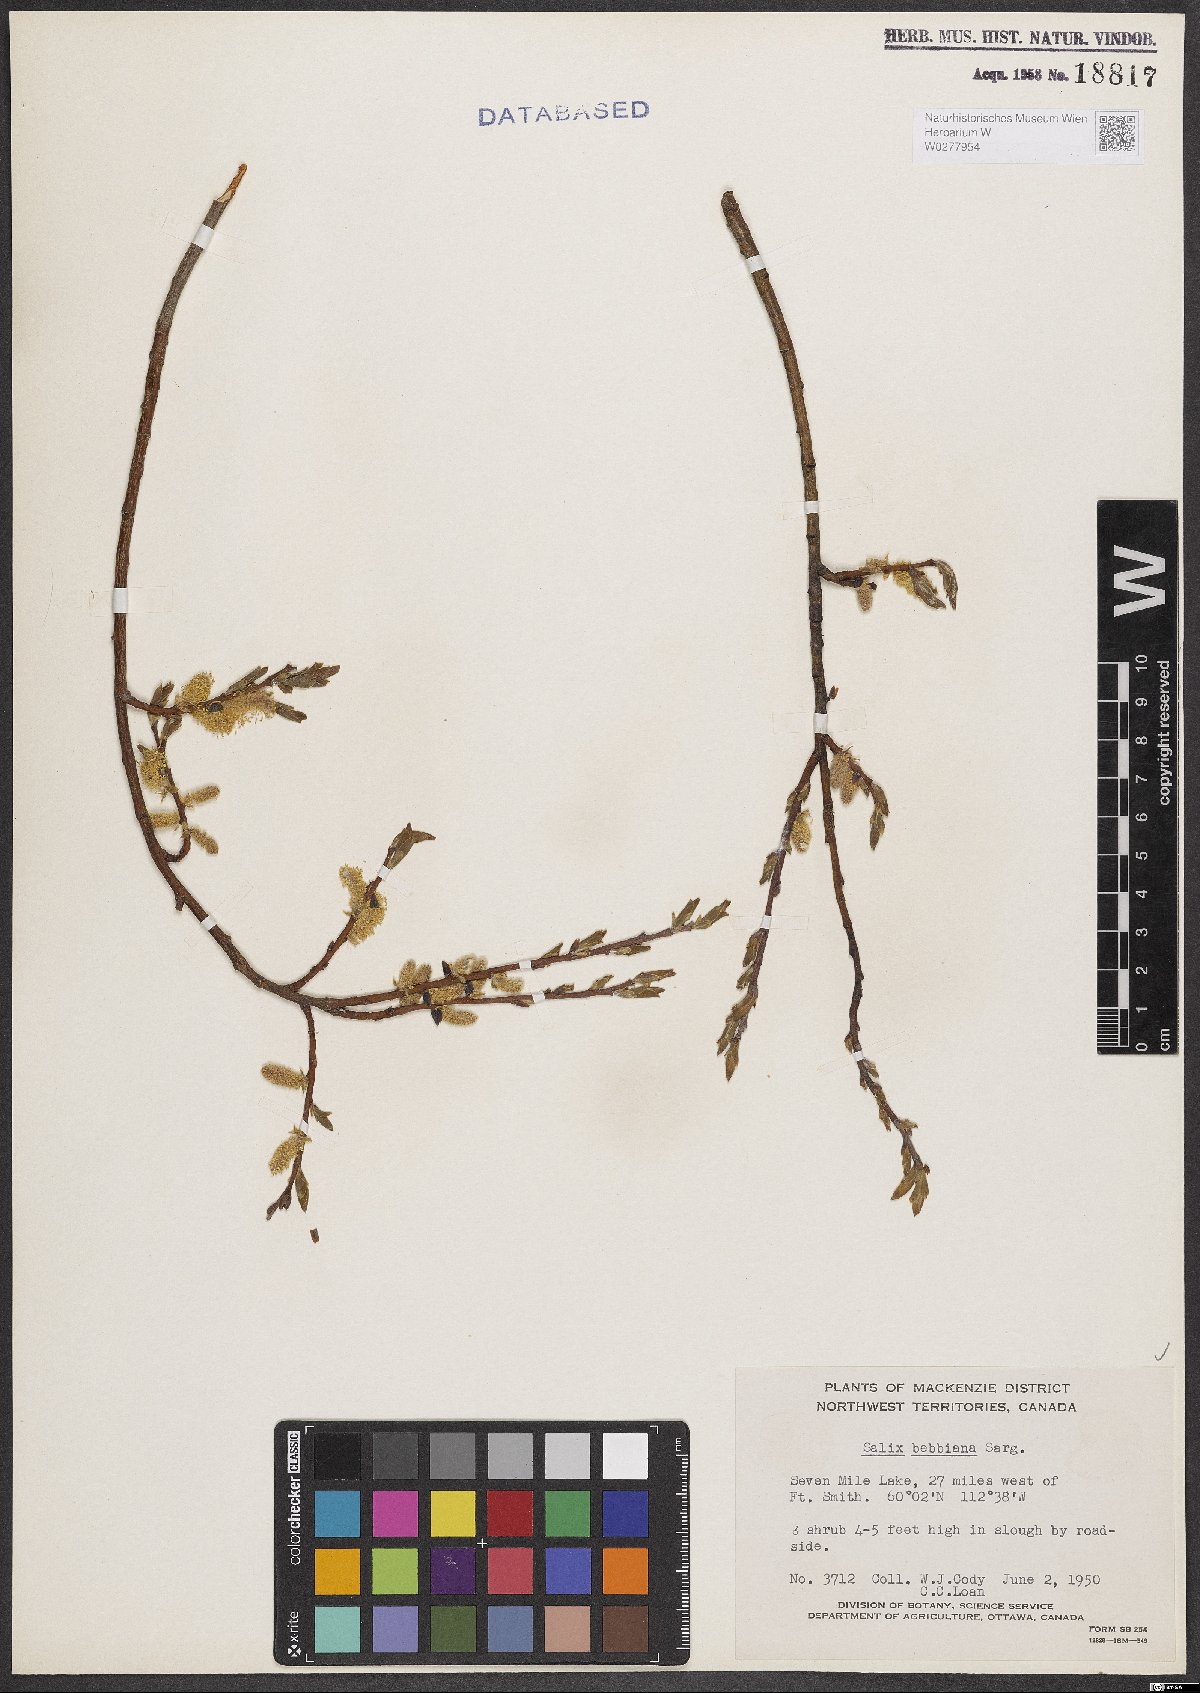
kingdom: Plantae
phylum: Tracheophyta
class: Magnoliopsida
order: Malpighiales
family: Salicaceae
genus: Salix
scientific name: Salix bebbiana
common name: Bebb's willow
